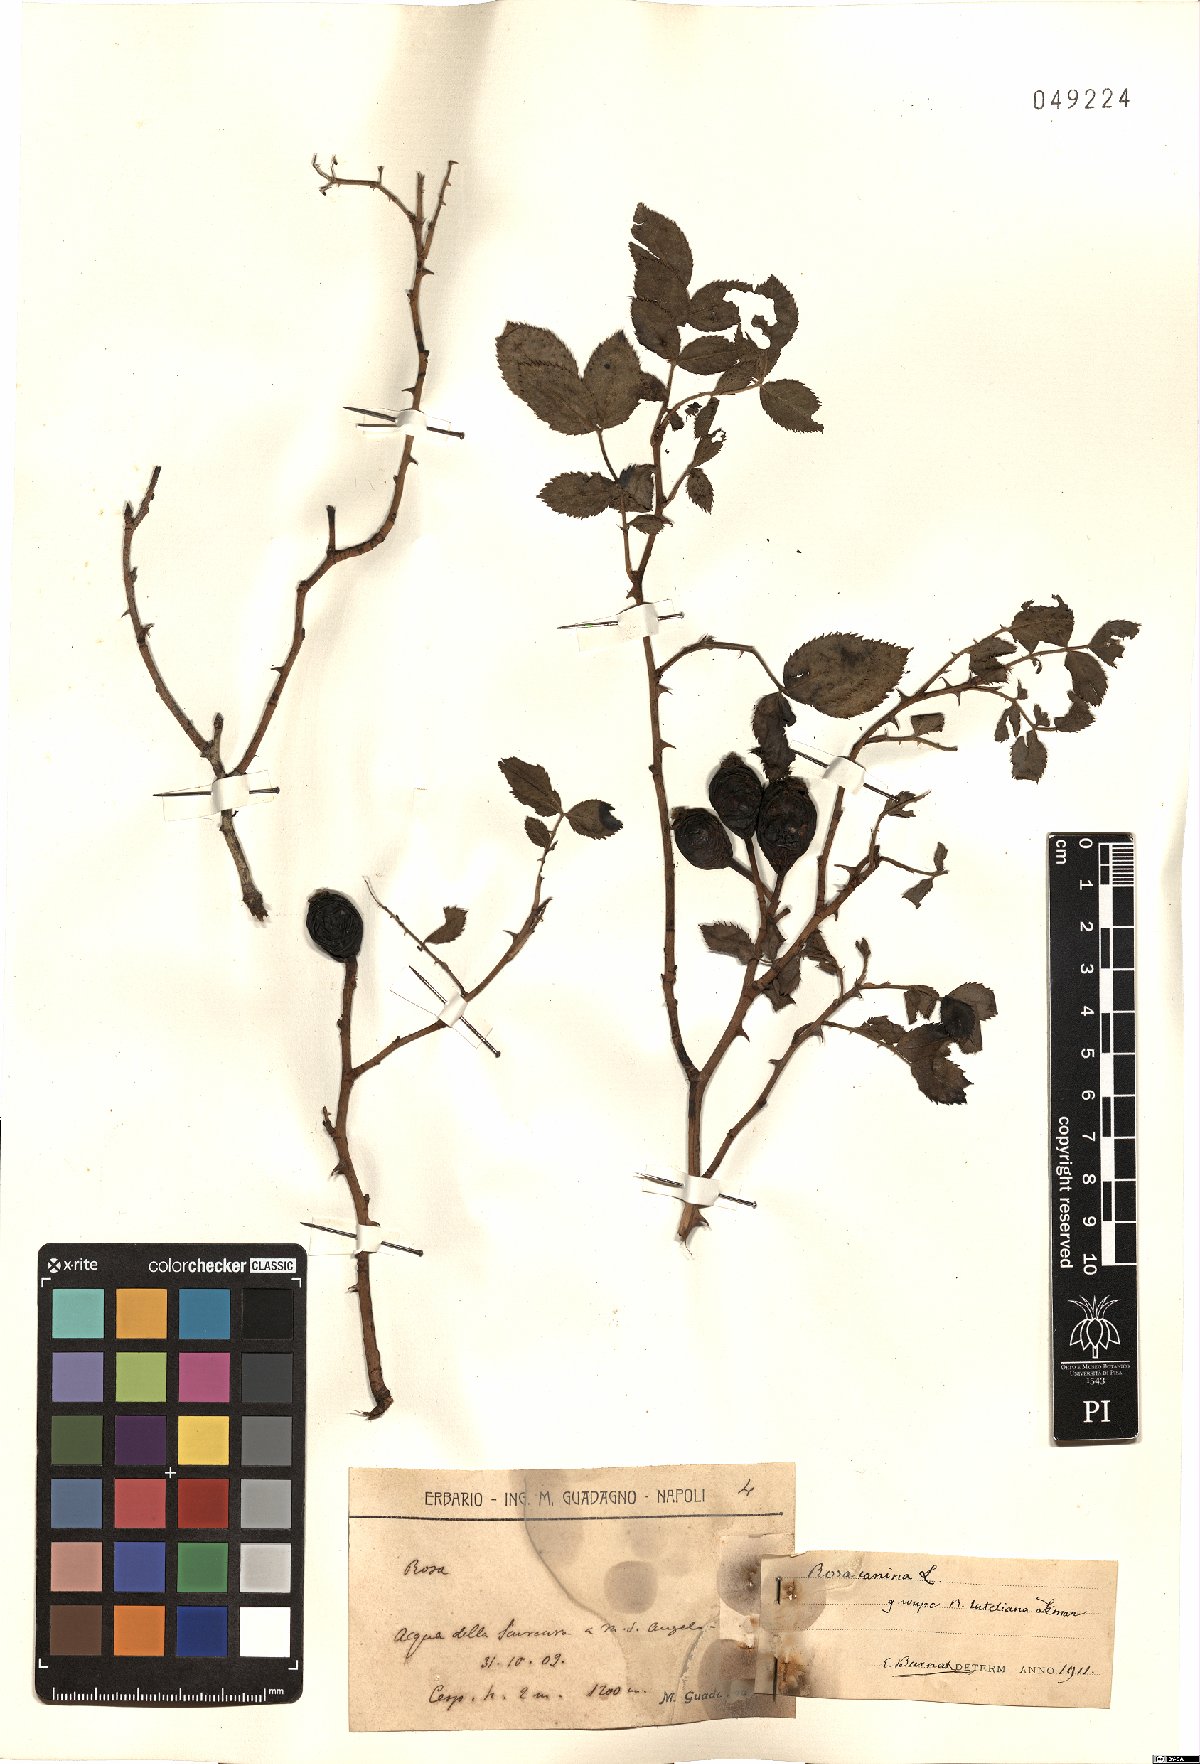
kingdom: Plantae
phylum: Tracheophyta
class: Magnoliopsida
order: Rosales
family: Rosaceae
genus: Rosa
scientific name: Rosa canina
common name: Dog rose
